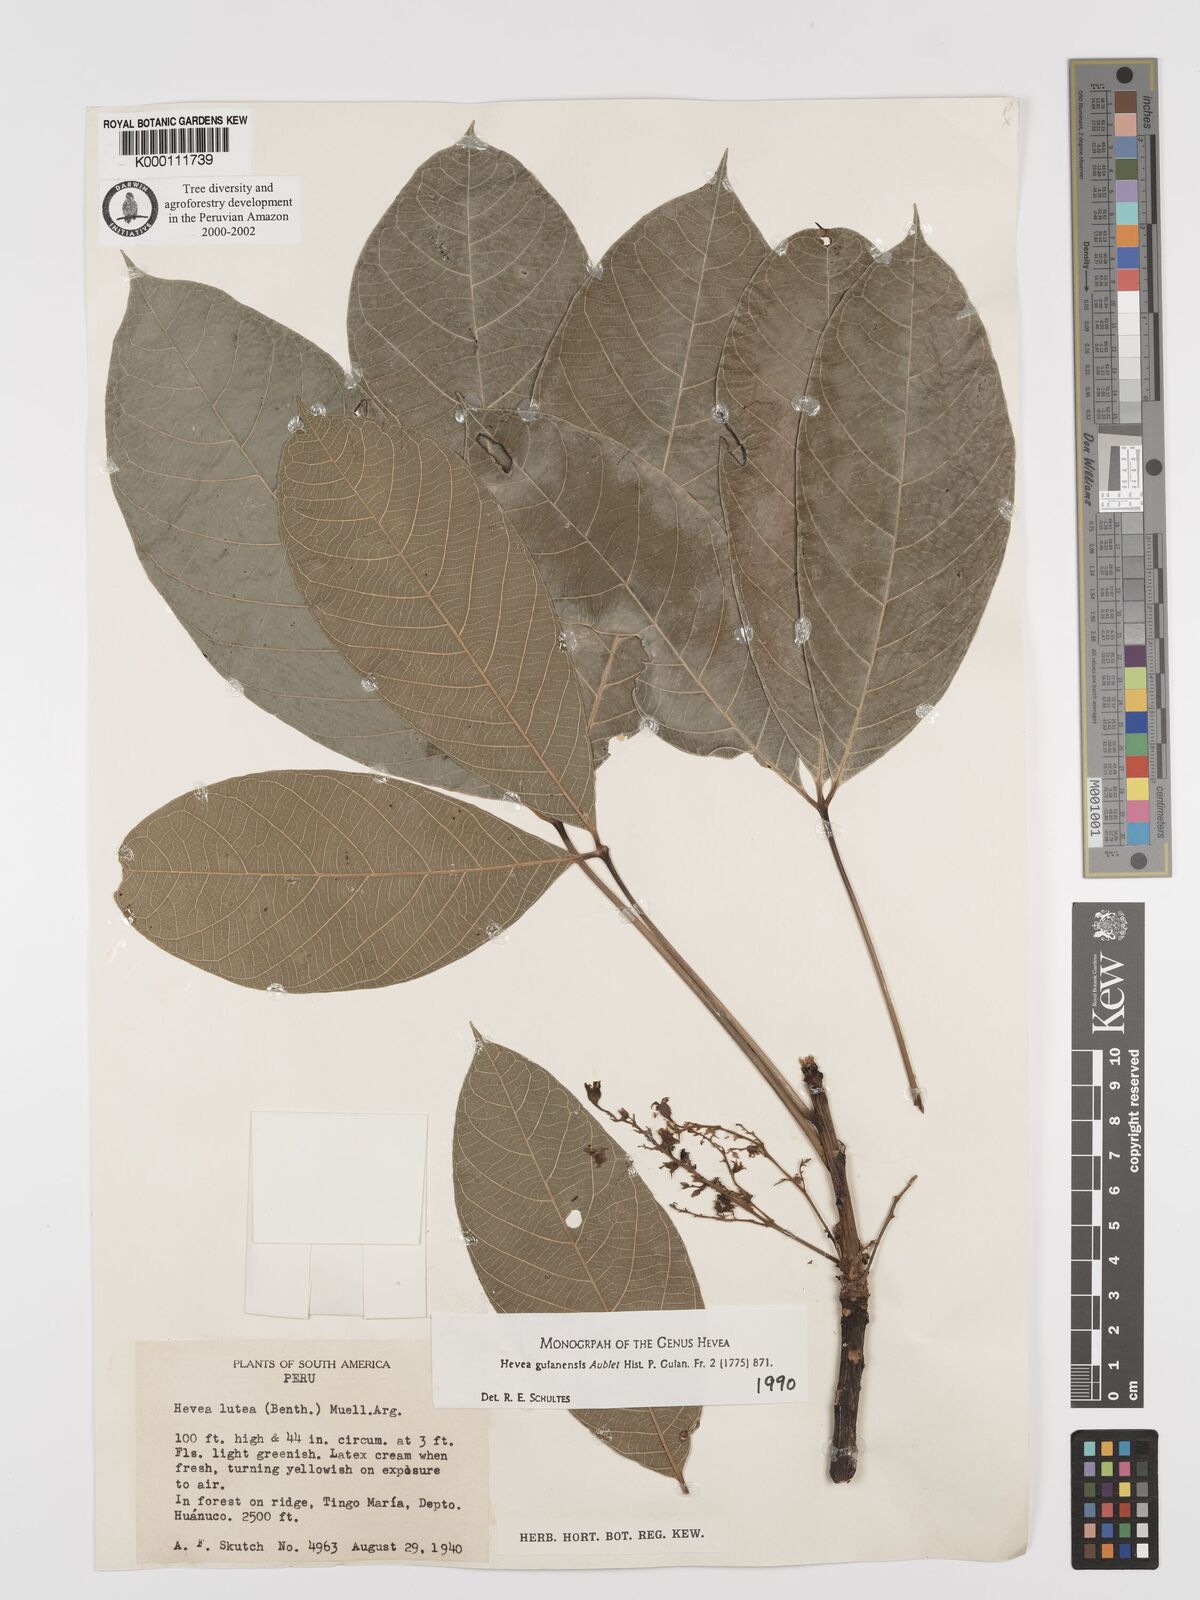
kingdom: Plantae
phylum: Tracheophyta
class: Magnoliopsida
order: Malpighiales
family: Euphorbiaceae
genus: Hevea
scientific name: Hevea guianensis
